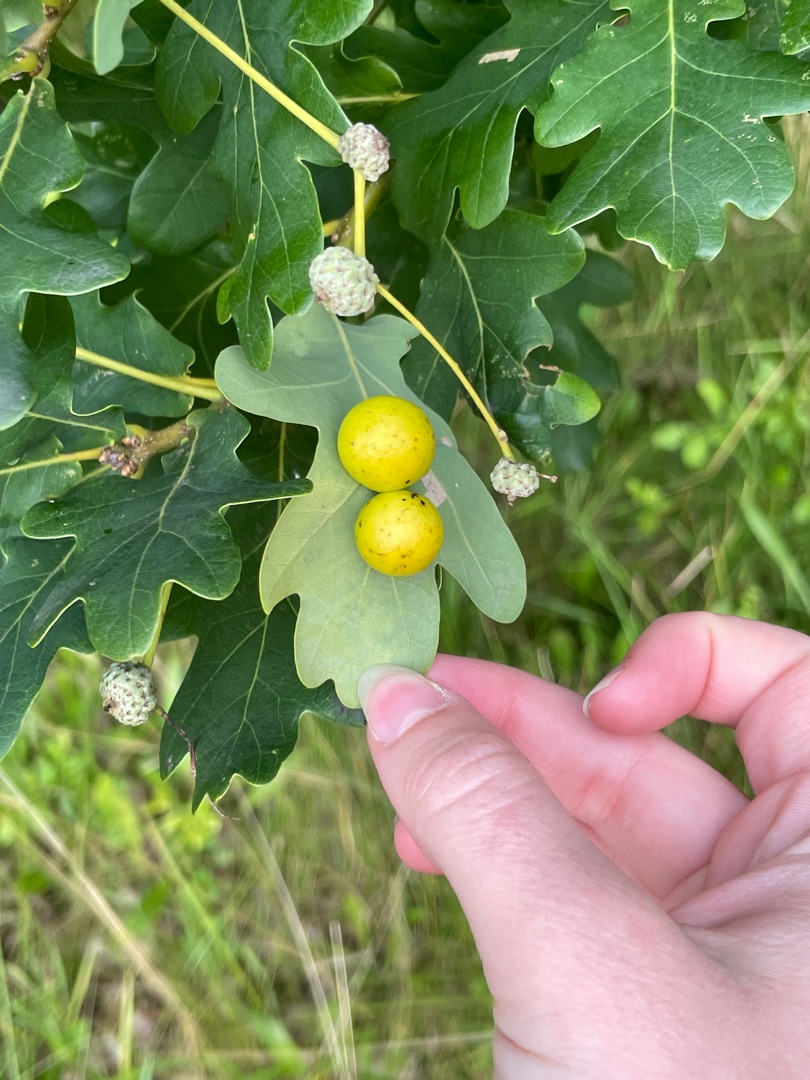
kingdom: Animalia
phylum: Arthropoda
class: Insecta
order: Hymenoptera
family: Cynipidae
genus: Andricus
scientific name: Andricus kollari
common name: Marmorkugle-galhveps
